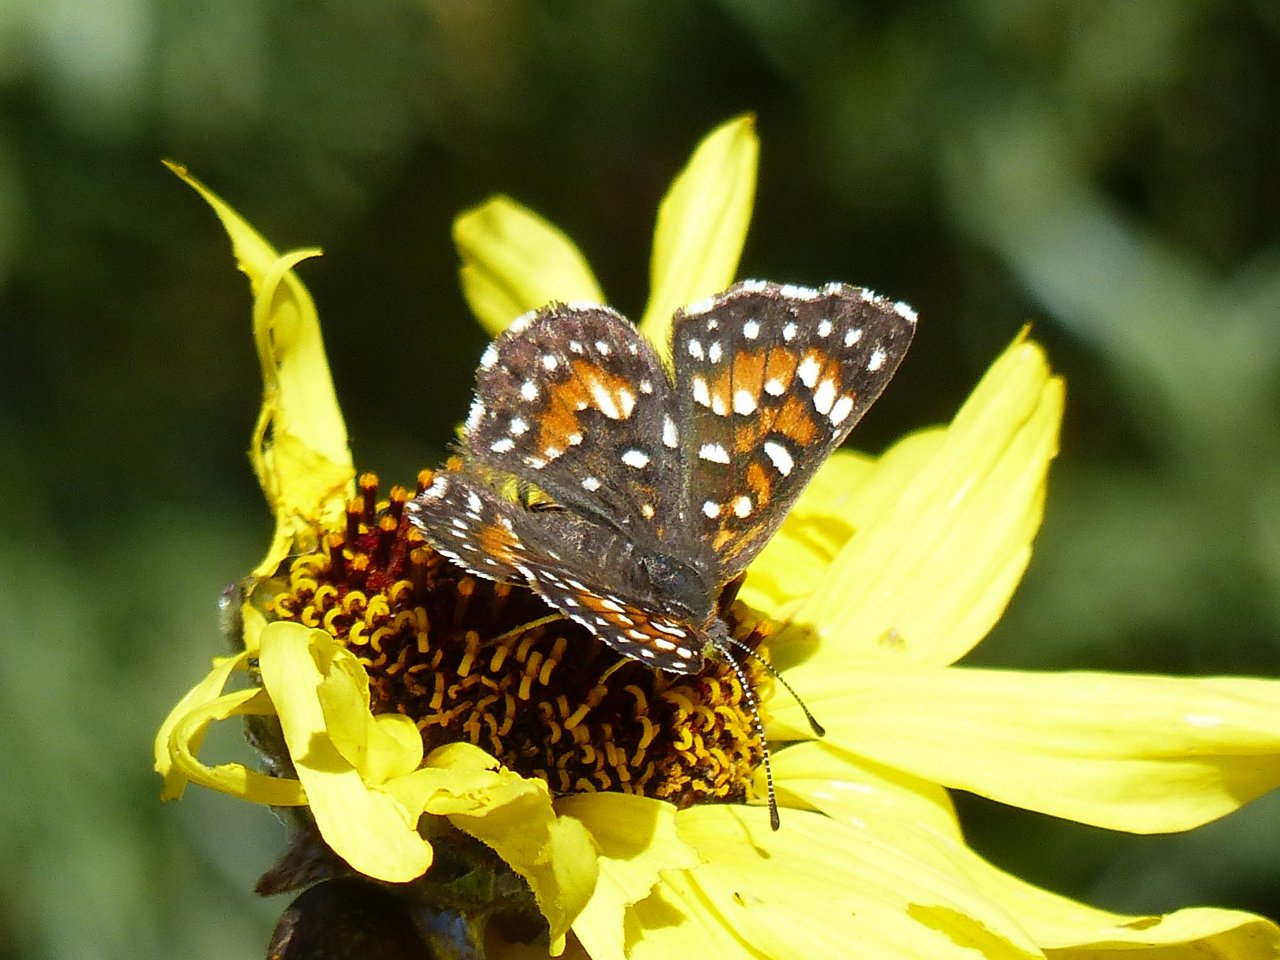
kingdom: Animalia
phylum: Arthropoda
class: Insecta
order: Lepidoptera
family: Riodinidae
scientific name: Riodinidae
